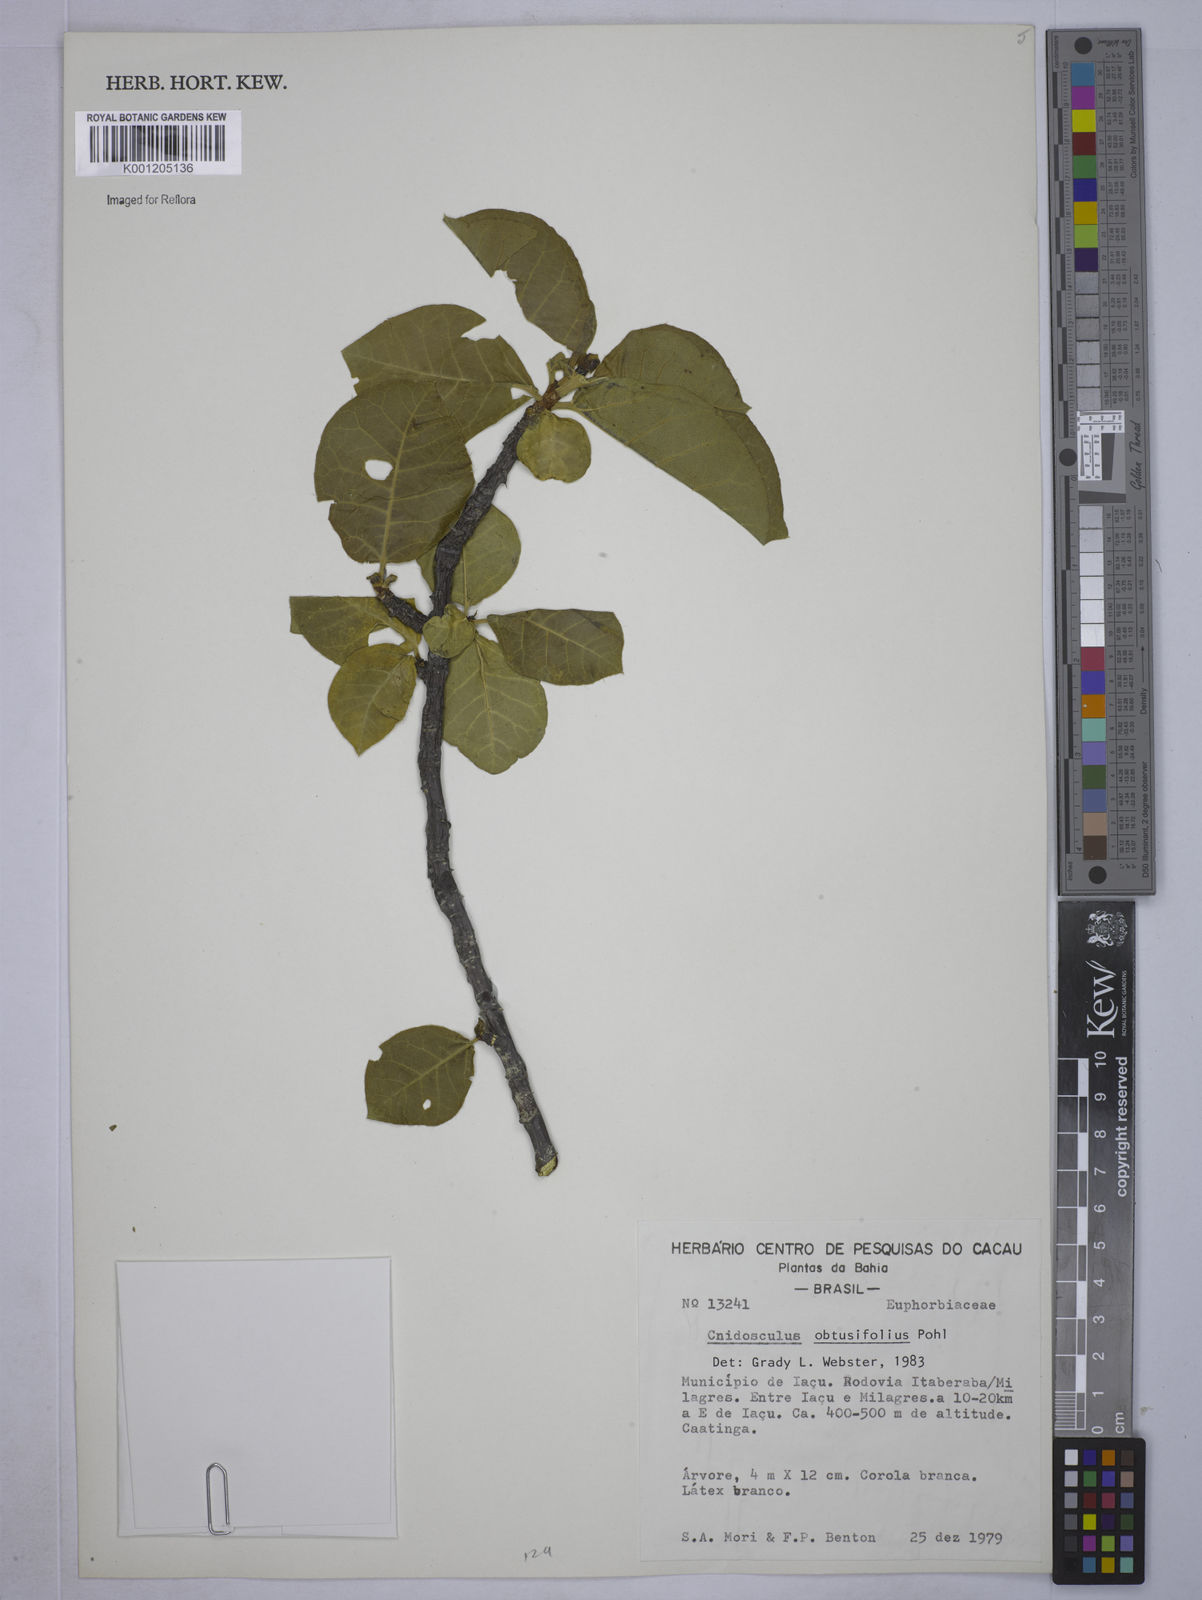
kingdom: Plantae
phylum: Tracheophyta
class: Magnoliopsida
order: Malpighiales
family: Euphorbiaceae
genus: Cnidoscolus
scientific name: Cnidoscolus
